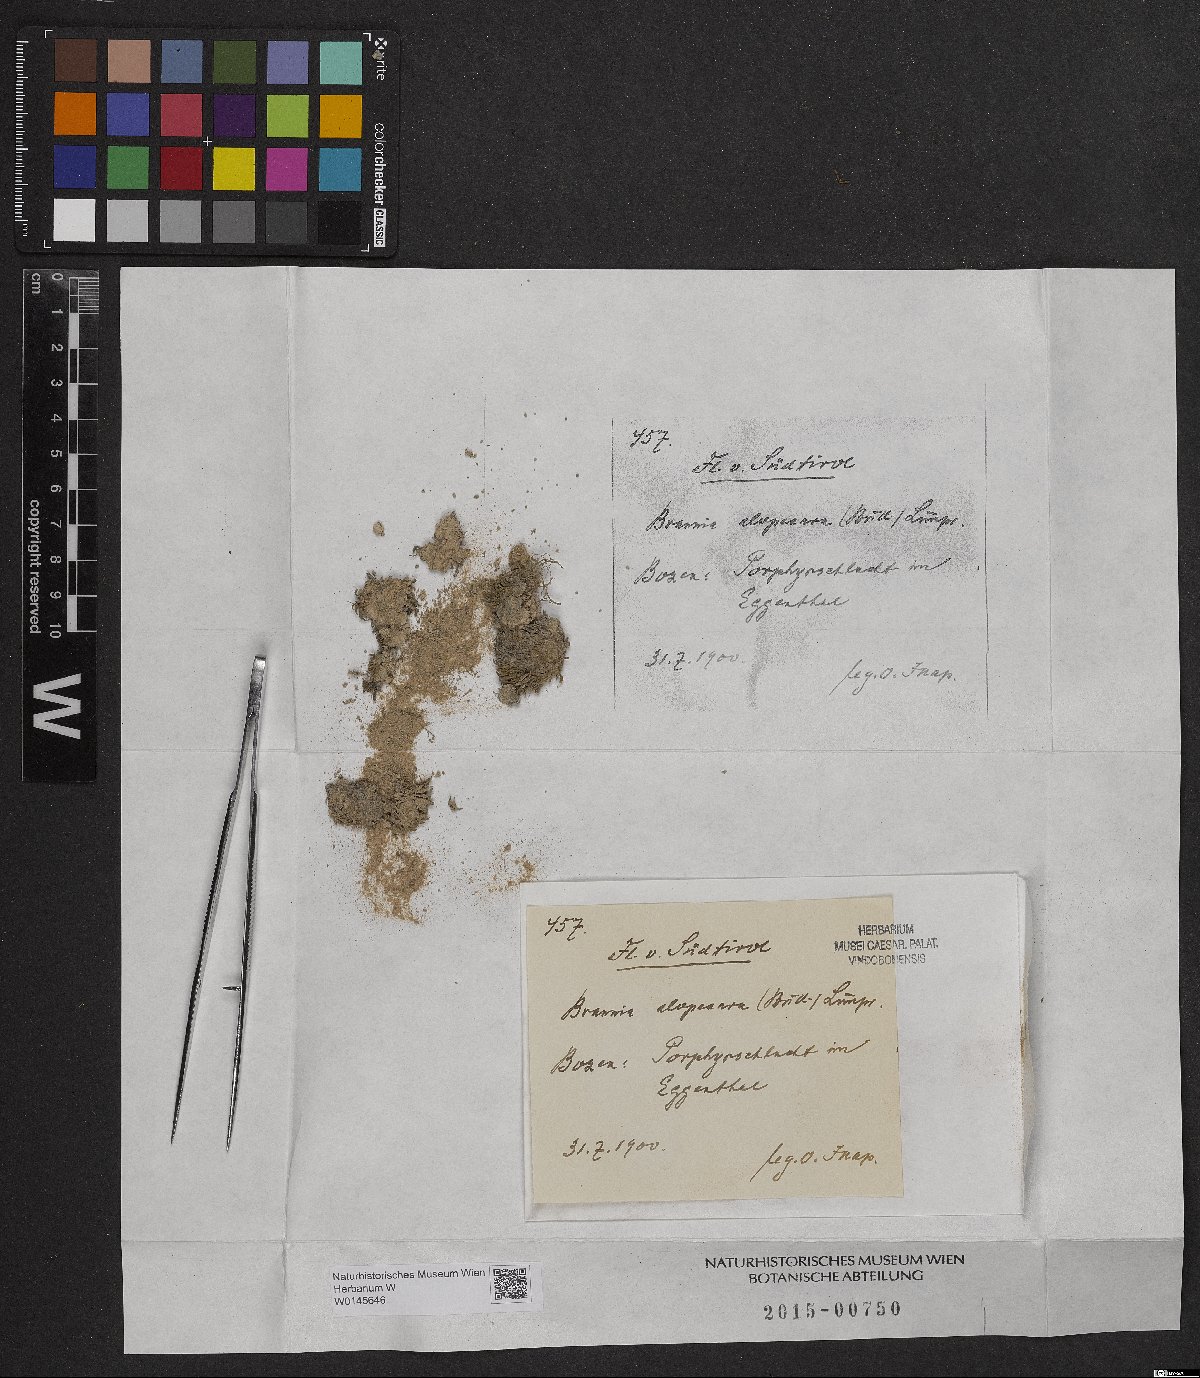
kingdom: Plantae
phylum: Bryophyta
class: Bryopsida
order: Hedwigiales
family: Hedwigiaceae
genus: Braunia
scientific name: Braunia alopecura
